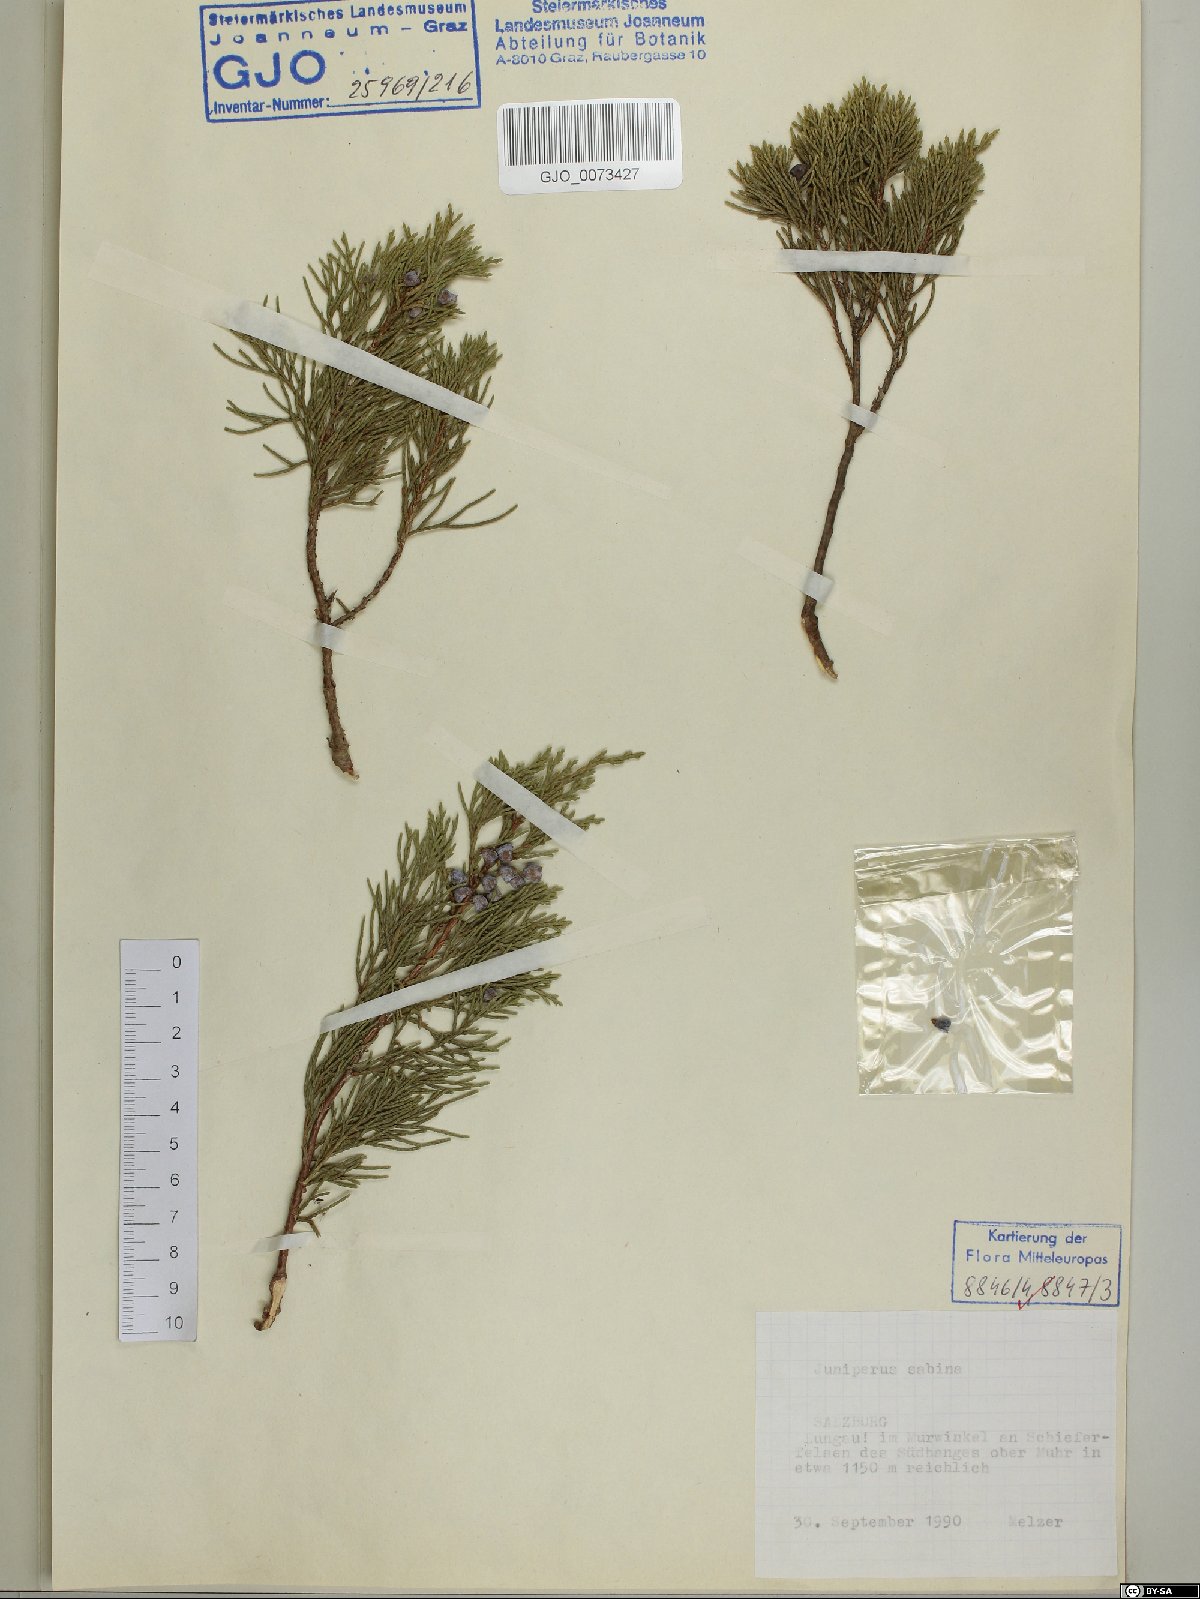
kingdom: Plantae
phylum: Tracheophyta
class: Pinopsida
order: Pinales
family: Cupressaceae
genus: Juniperus
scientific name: Juniperus sabina
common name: Savin
